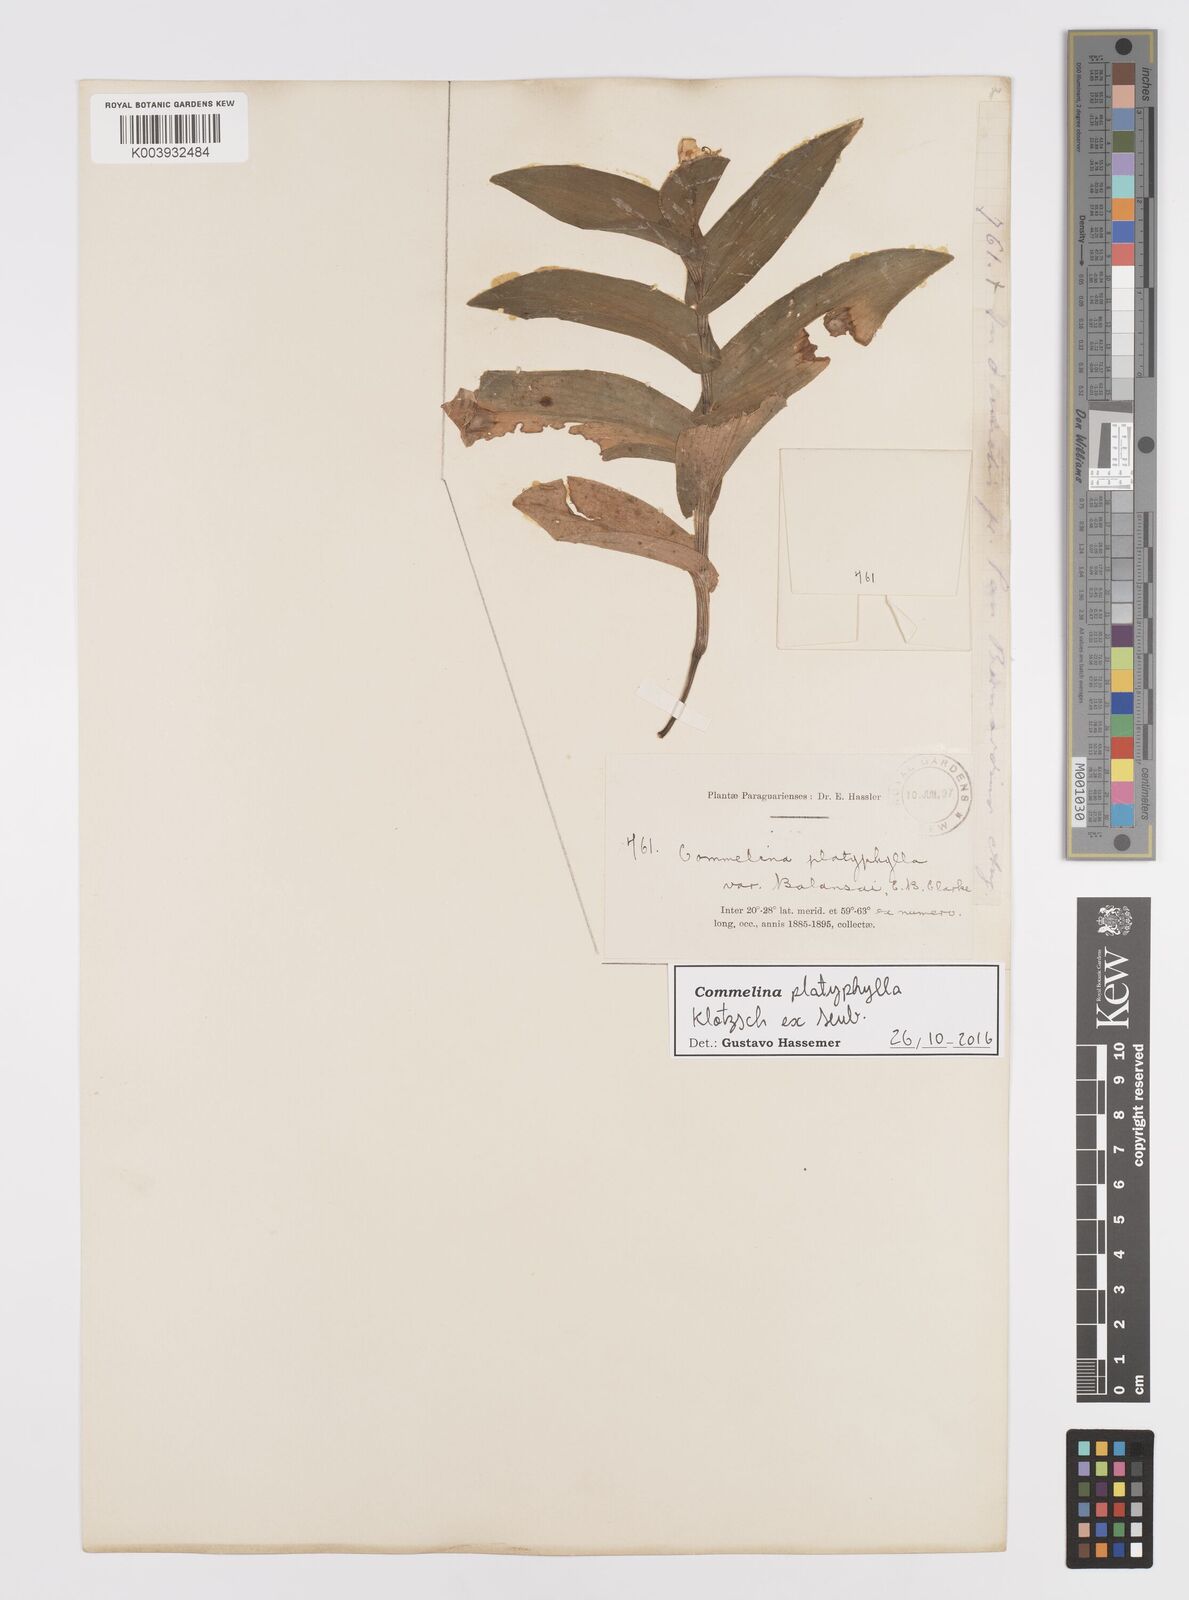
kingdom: Plantae
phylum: Tracheophyta
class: Liliopsida
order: Commelinales
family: Commelinaceae
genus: Commelina
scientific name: Commelina platyphylla
